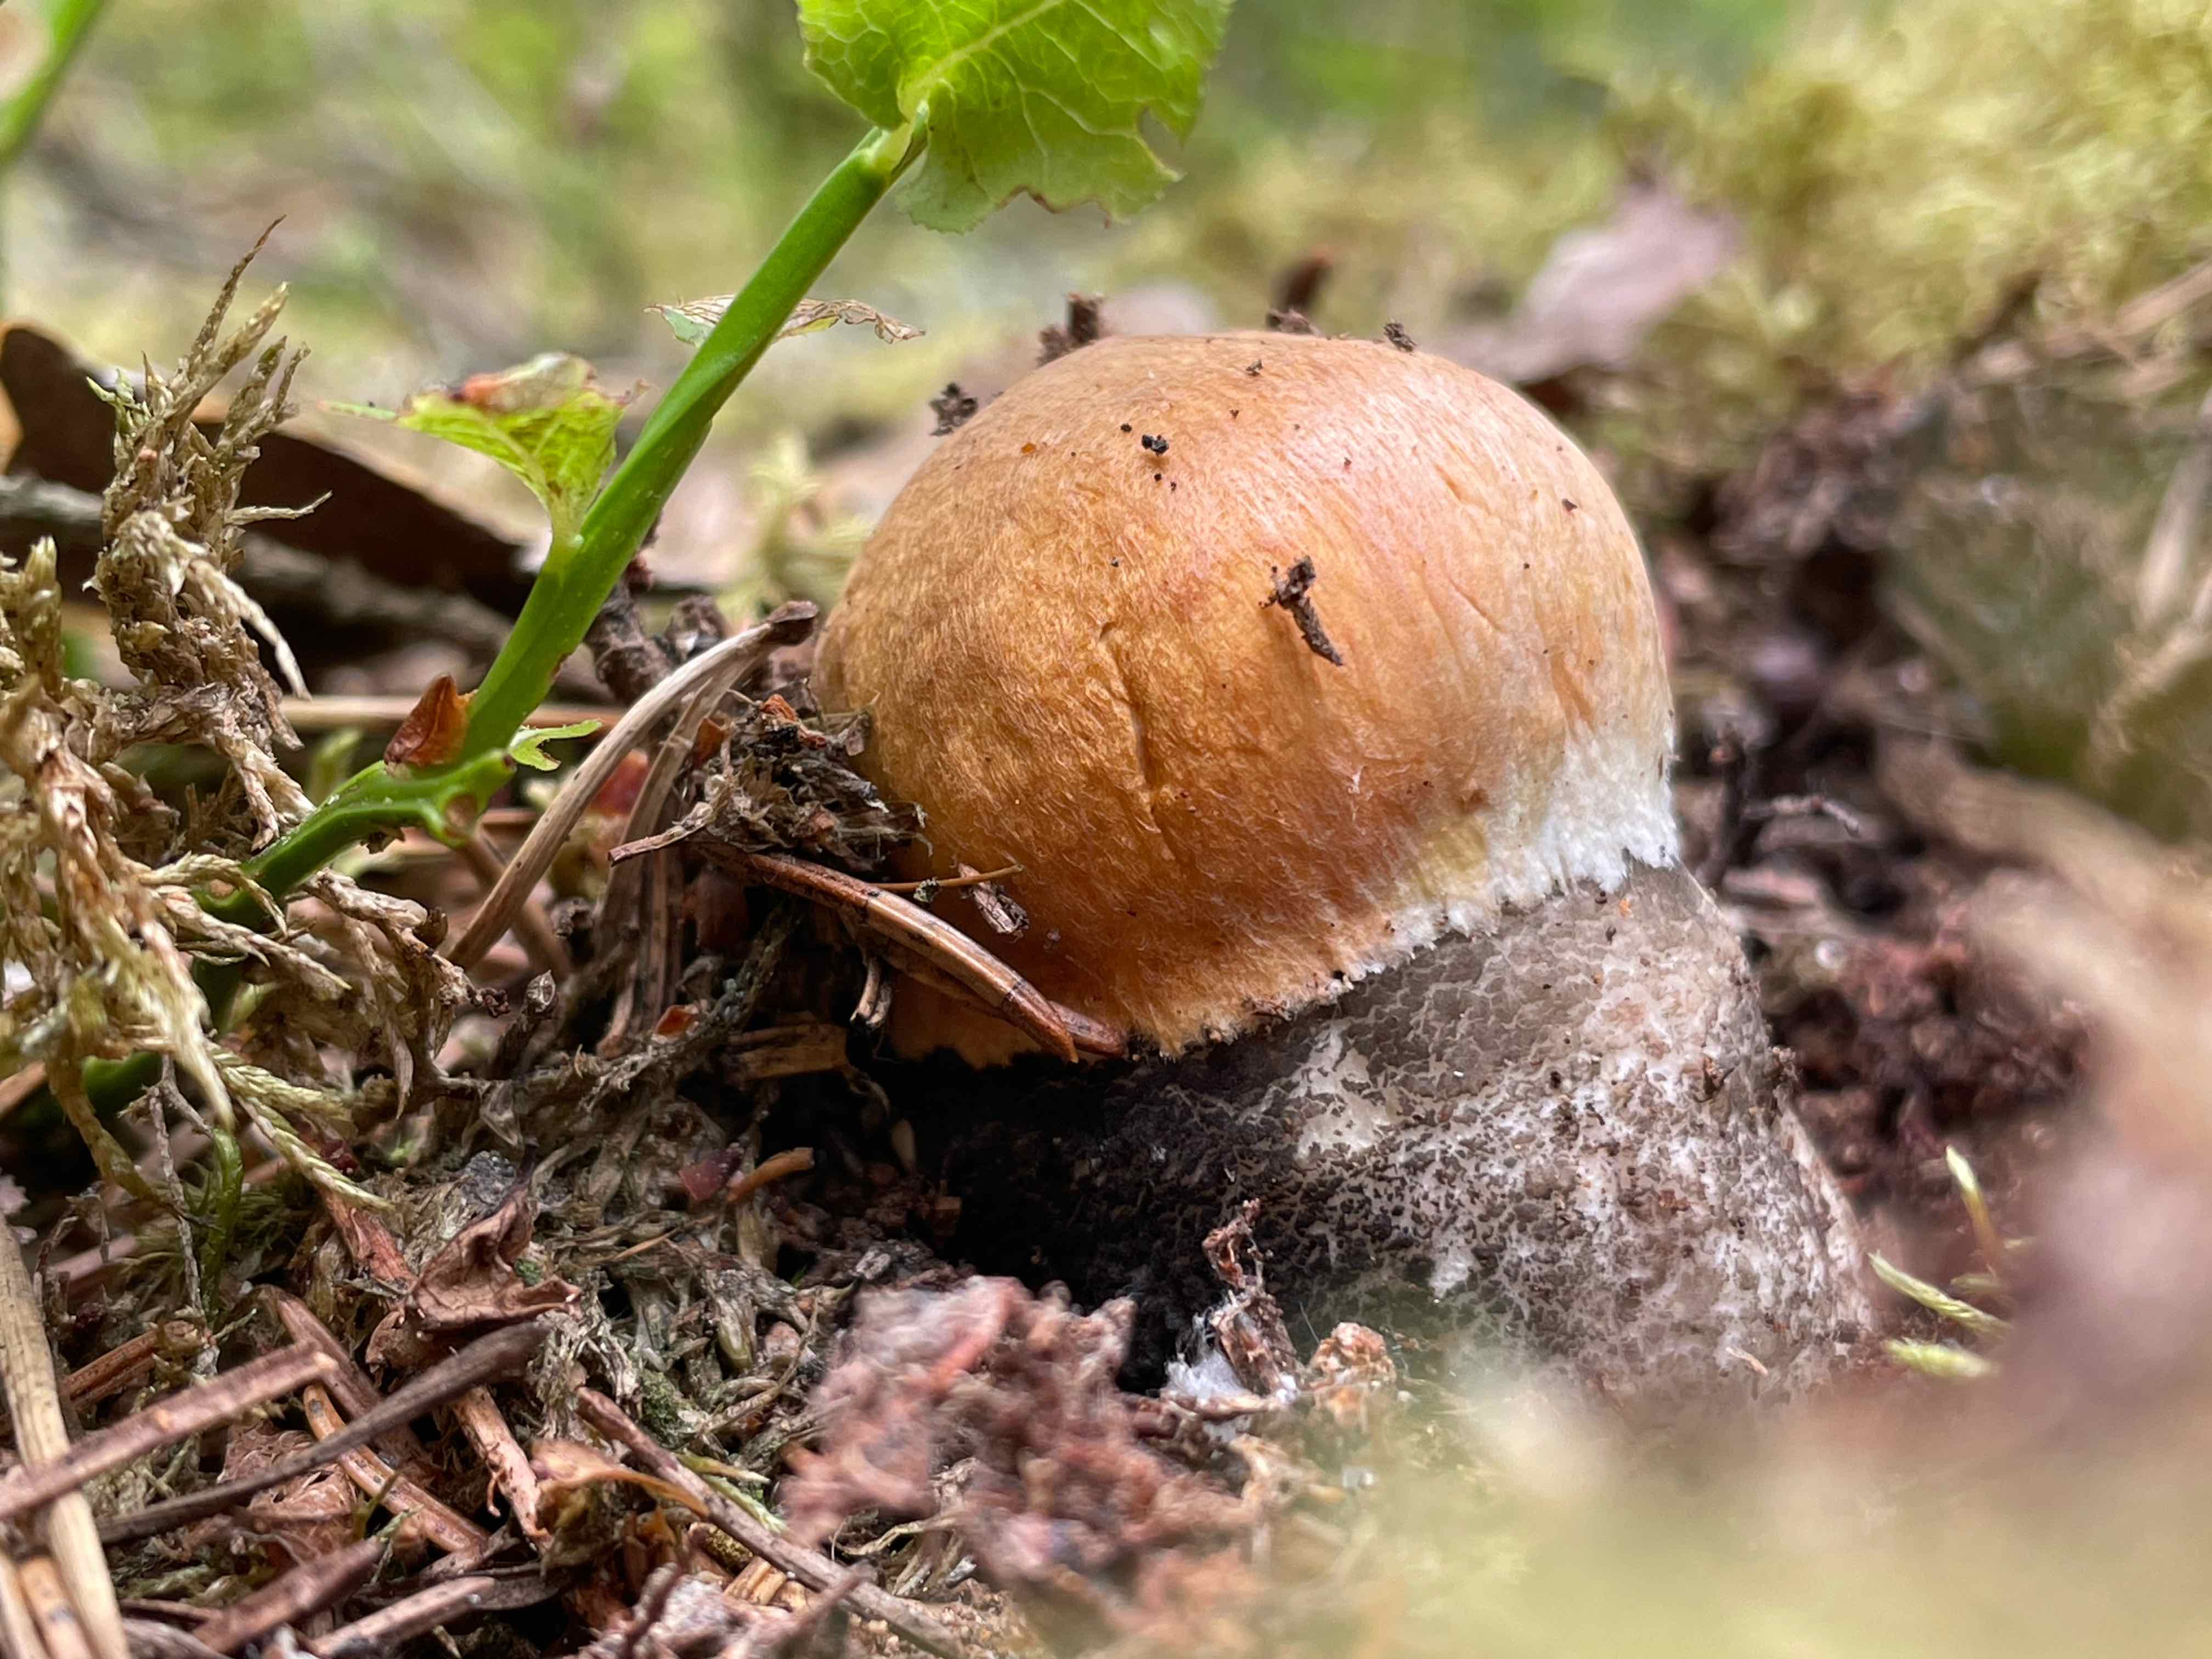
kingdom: Fungi
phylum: Basidiomycota
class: Agaricomycetes
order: Boletales
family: Boletaceae
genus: Leccinum
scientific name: Leccinum
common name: skælrørhat
